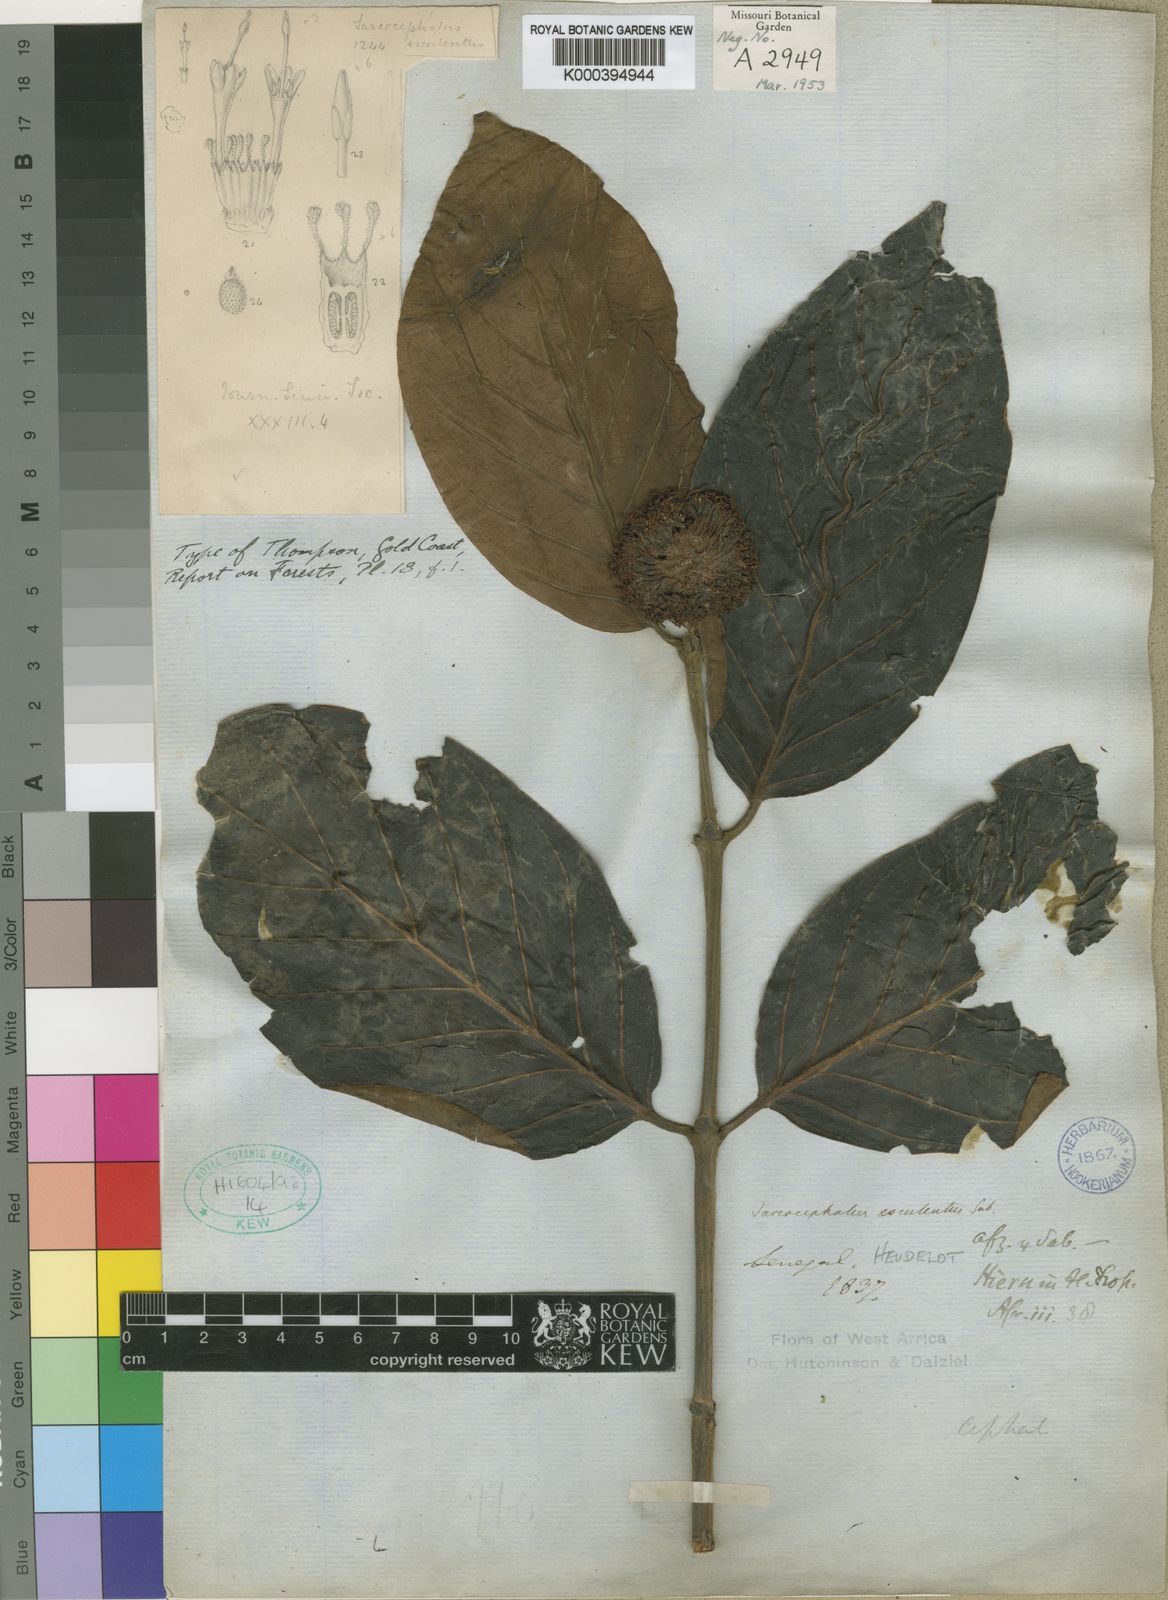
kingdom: Plantae
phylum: Tracheophyta
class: Magnoliopsida
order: Gentianales
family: Rubiaceae
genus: Nauclea
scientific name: Nauclea latifolia
